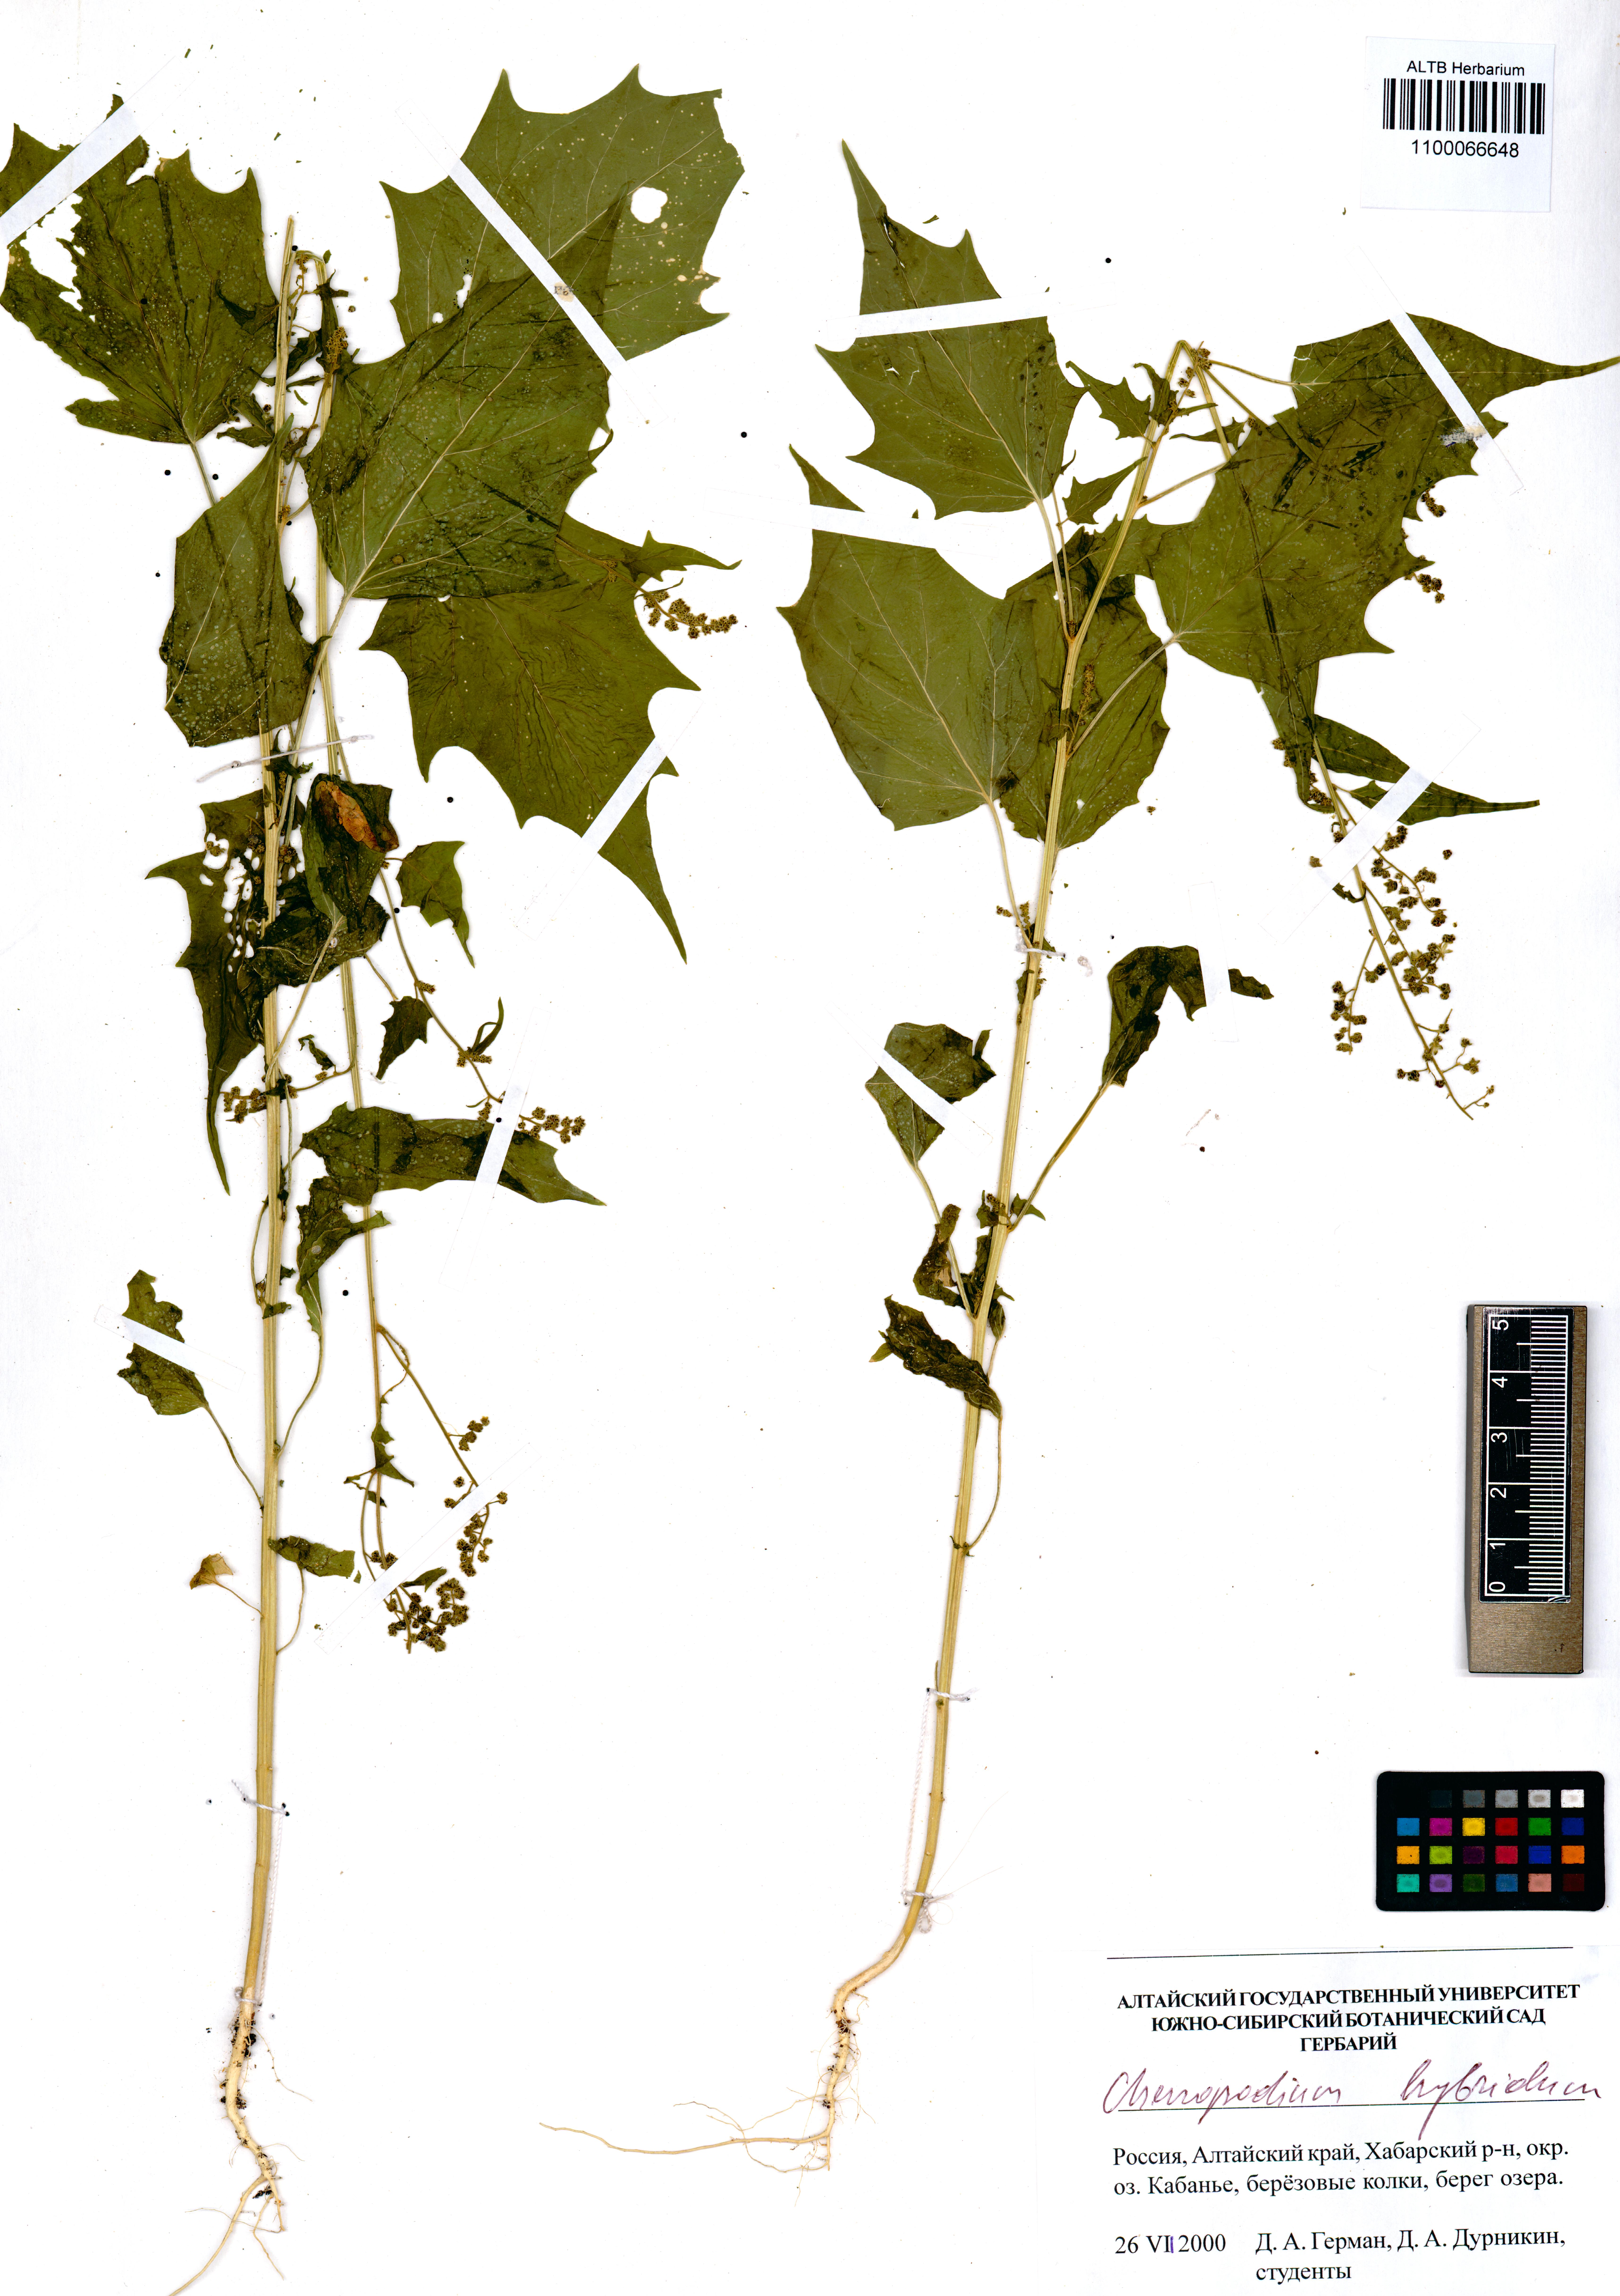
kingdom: Plantae
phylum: Tracheophyta
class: Magnoliopsida
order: Caryophyllales
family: Amaranthaceae
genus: Chenopodiastrum
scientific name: Chenopodiastrum hybridum
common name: Mapleleaf goosefoot
